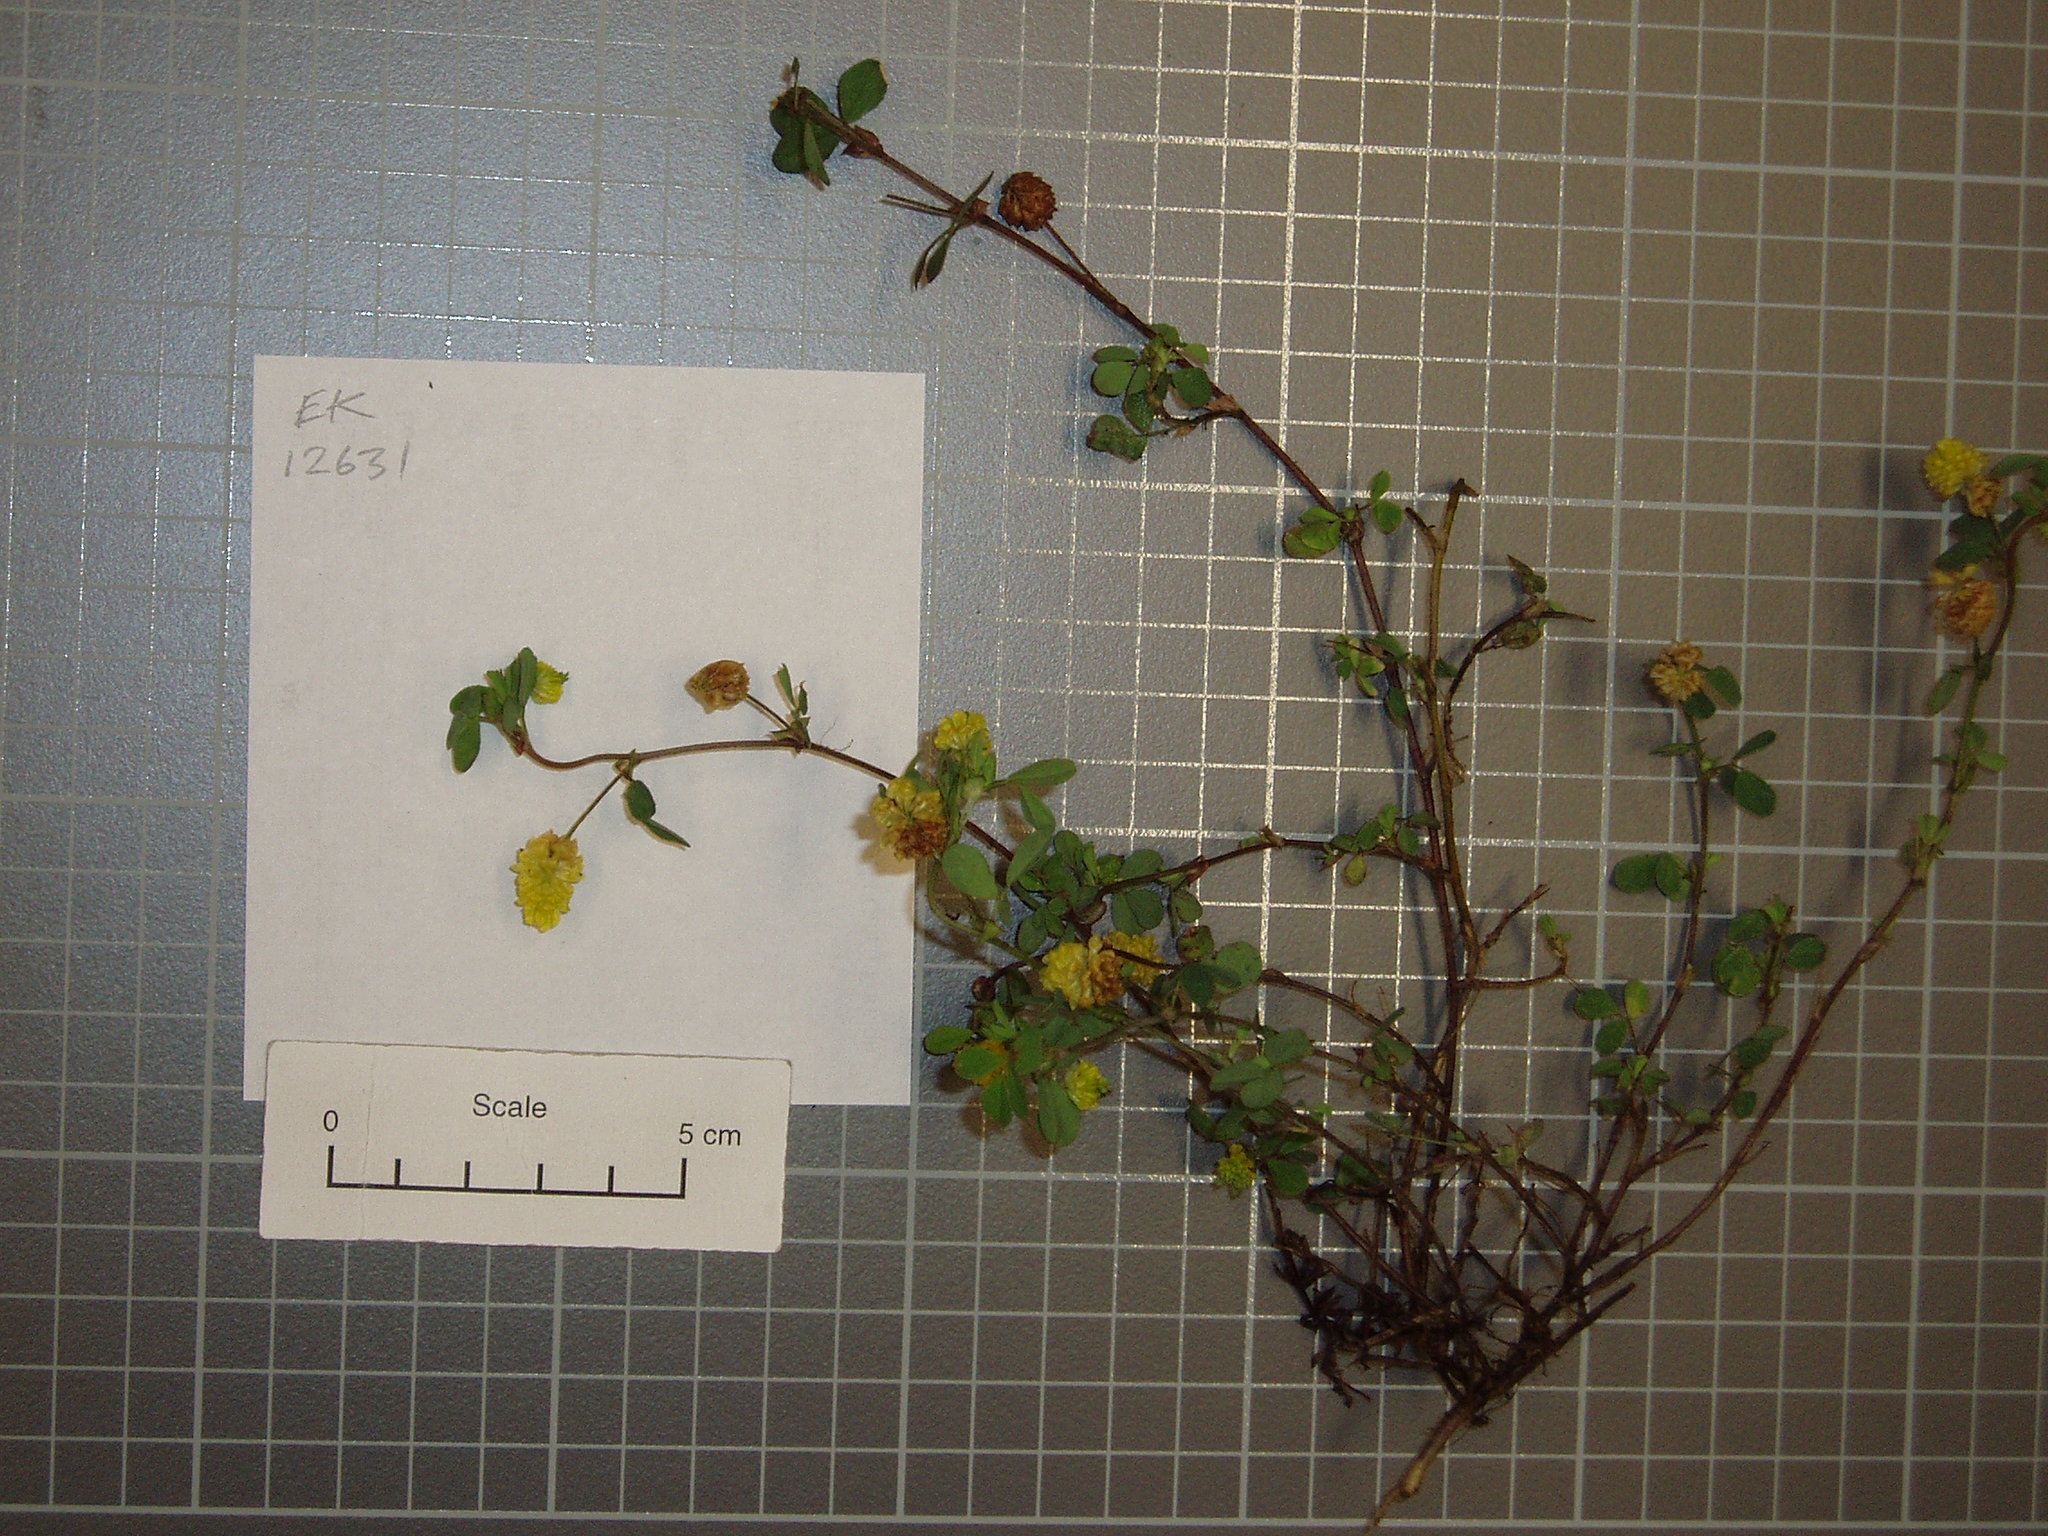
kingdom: Plantae
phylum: Tracheophyta
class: Magnoliopsida
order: Fabales
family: Fabaceae
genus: Trifolium
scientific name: Trifolium campestre
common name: Field clover
